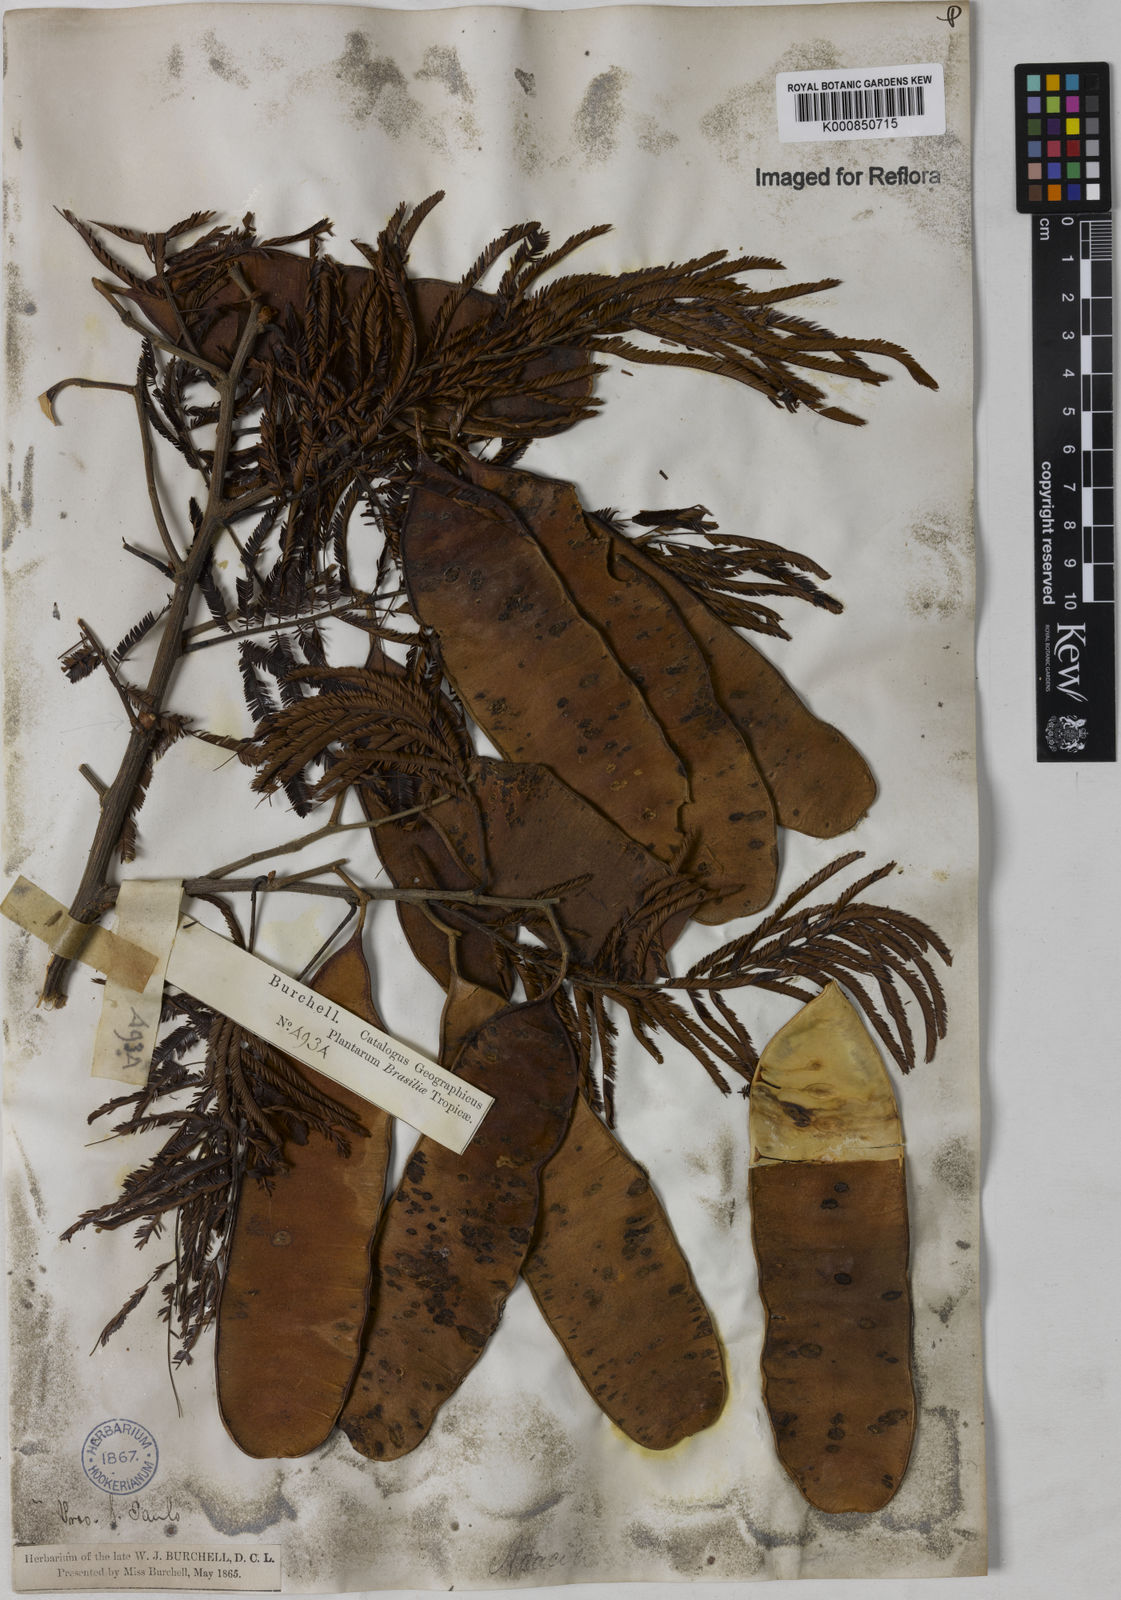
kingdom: Plantae
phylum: Tracheophyta
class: Magnoliopsida
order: Fabales
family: Fabaceae
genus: Senegalia
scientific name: Senegalia hayesii
